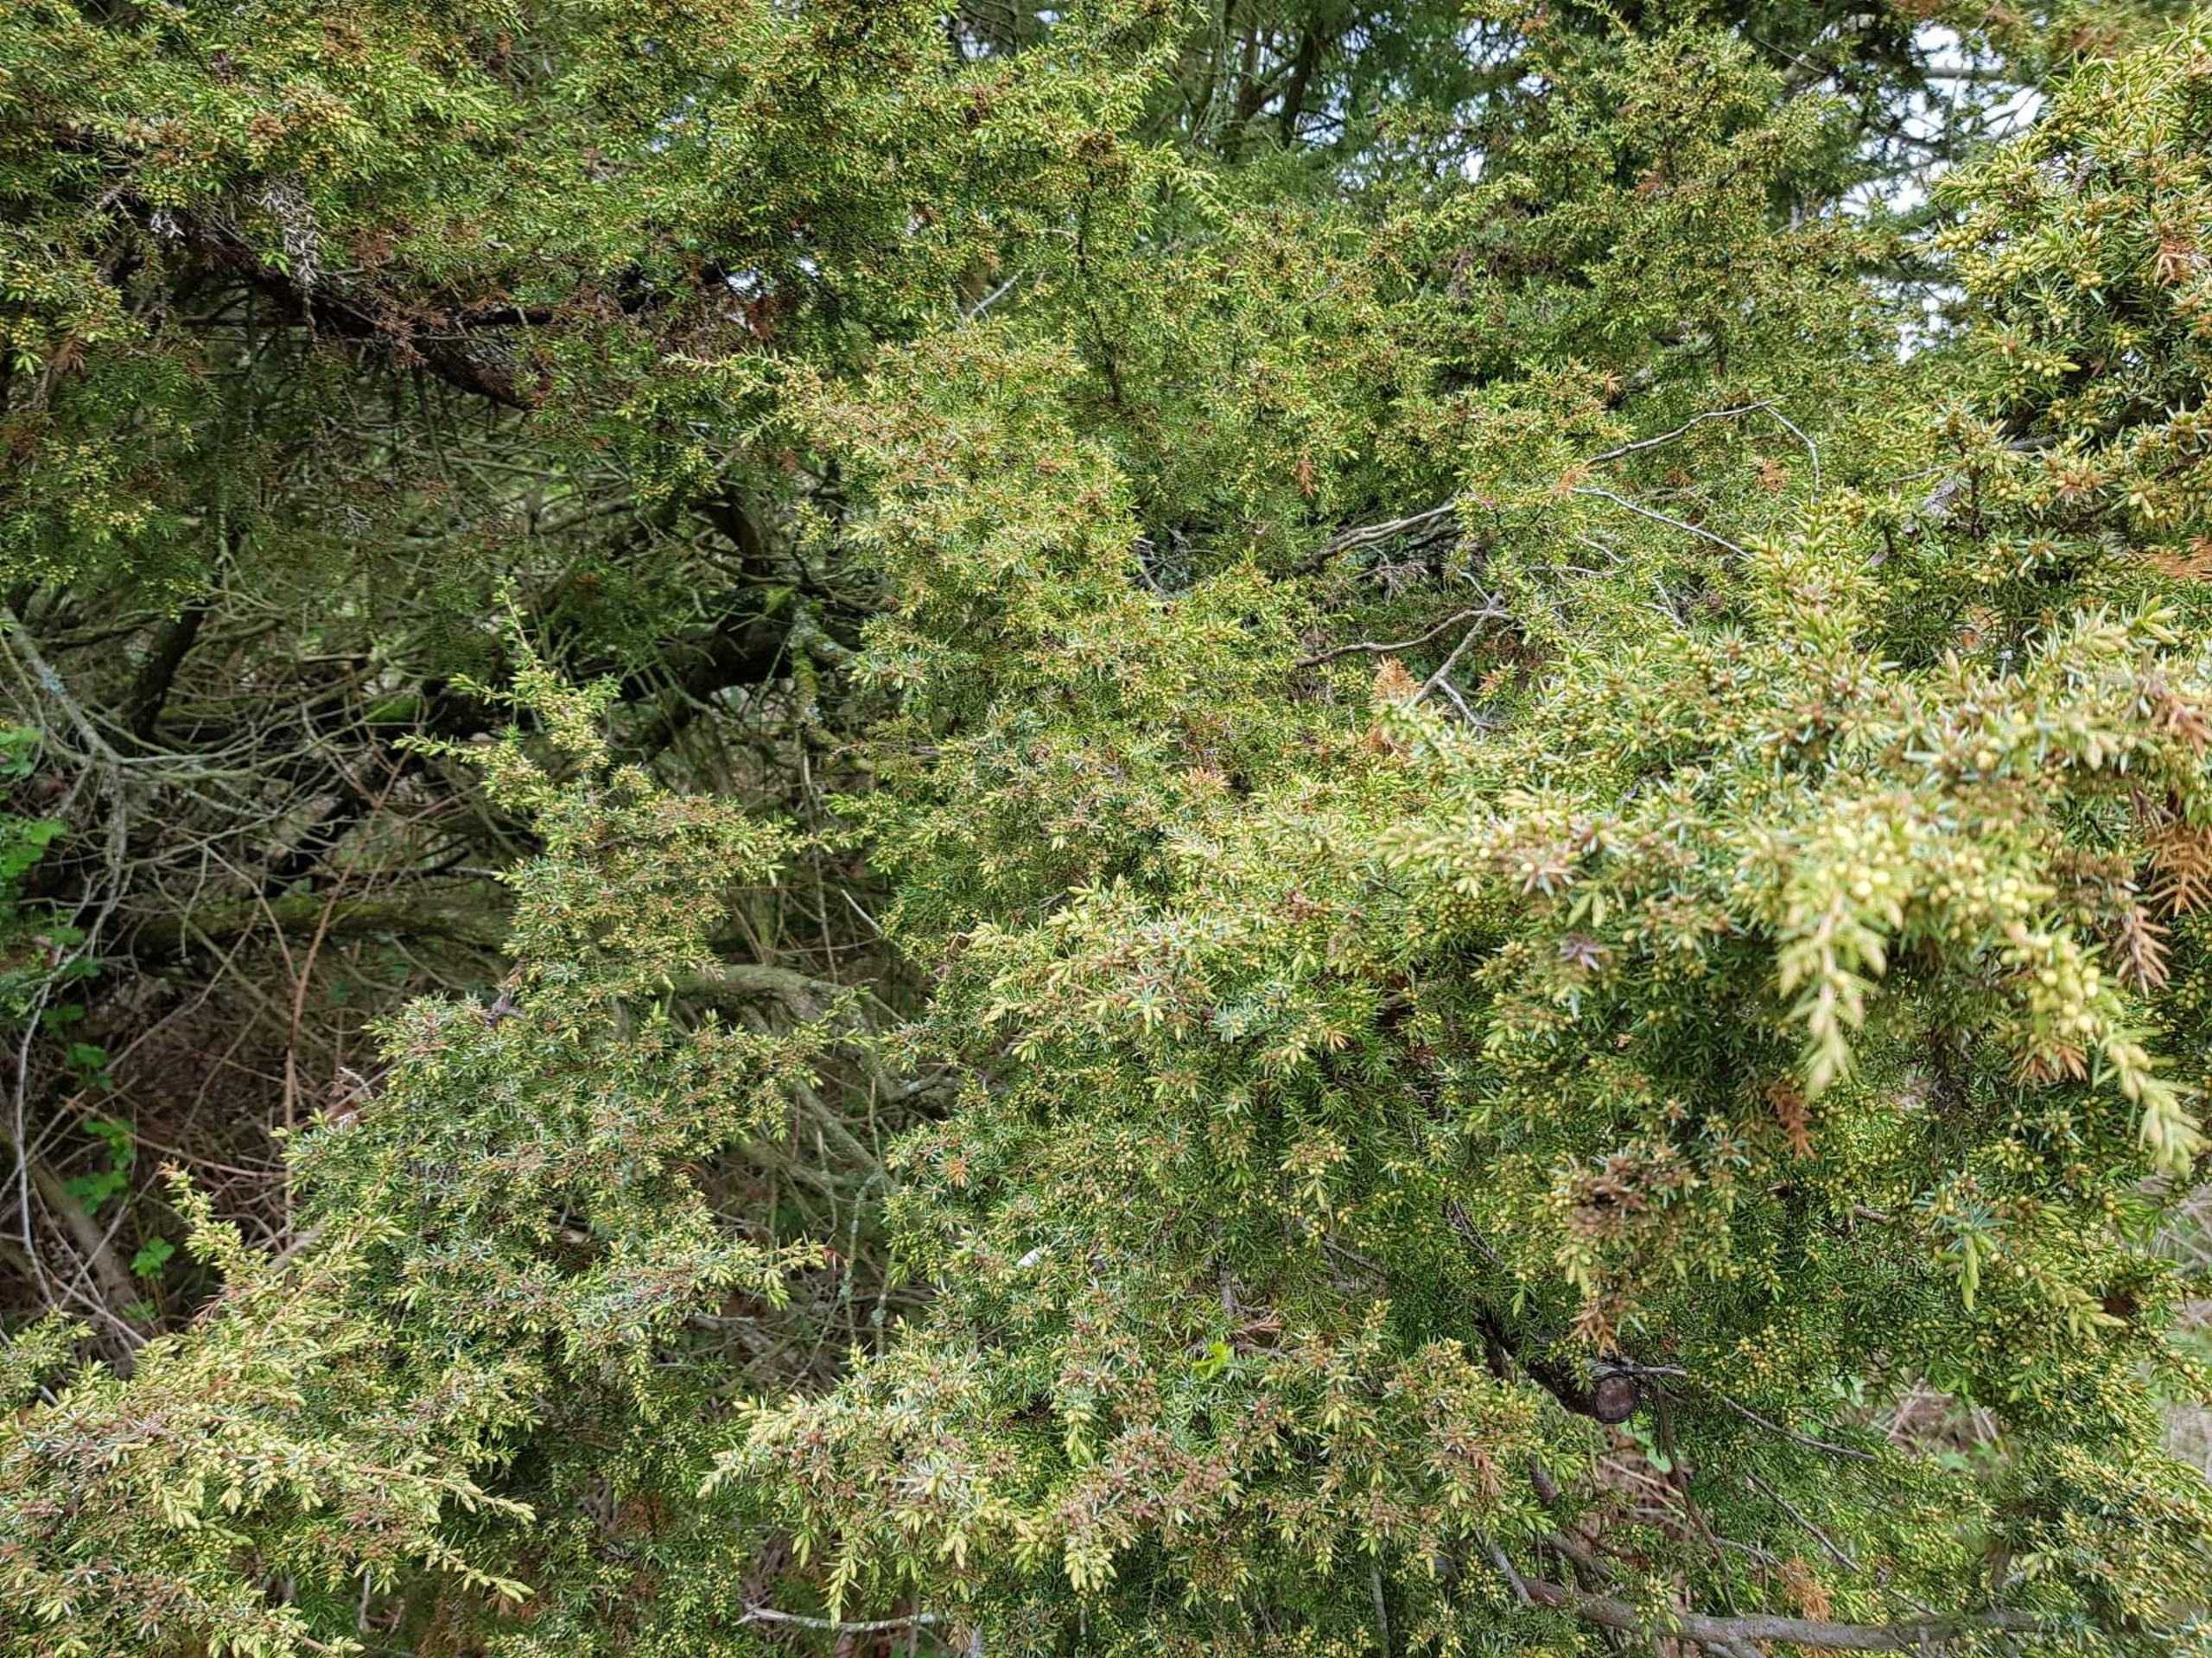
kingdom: Plantae
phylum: Tracheophyta
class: Pinopsida
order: Pinales
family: Cupressaceae
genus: Juniperus
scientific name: Juniperus communis
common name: Almindelig ene
